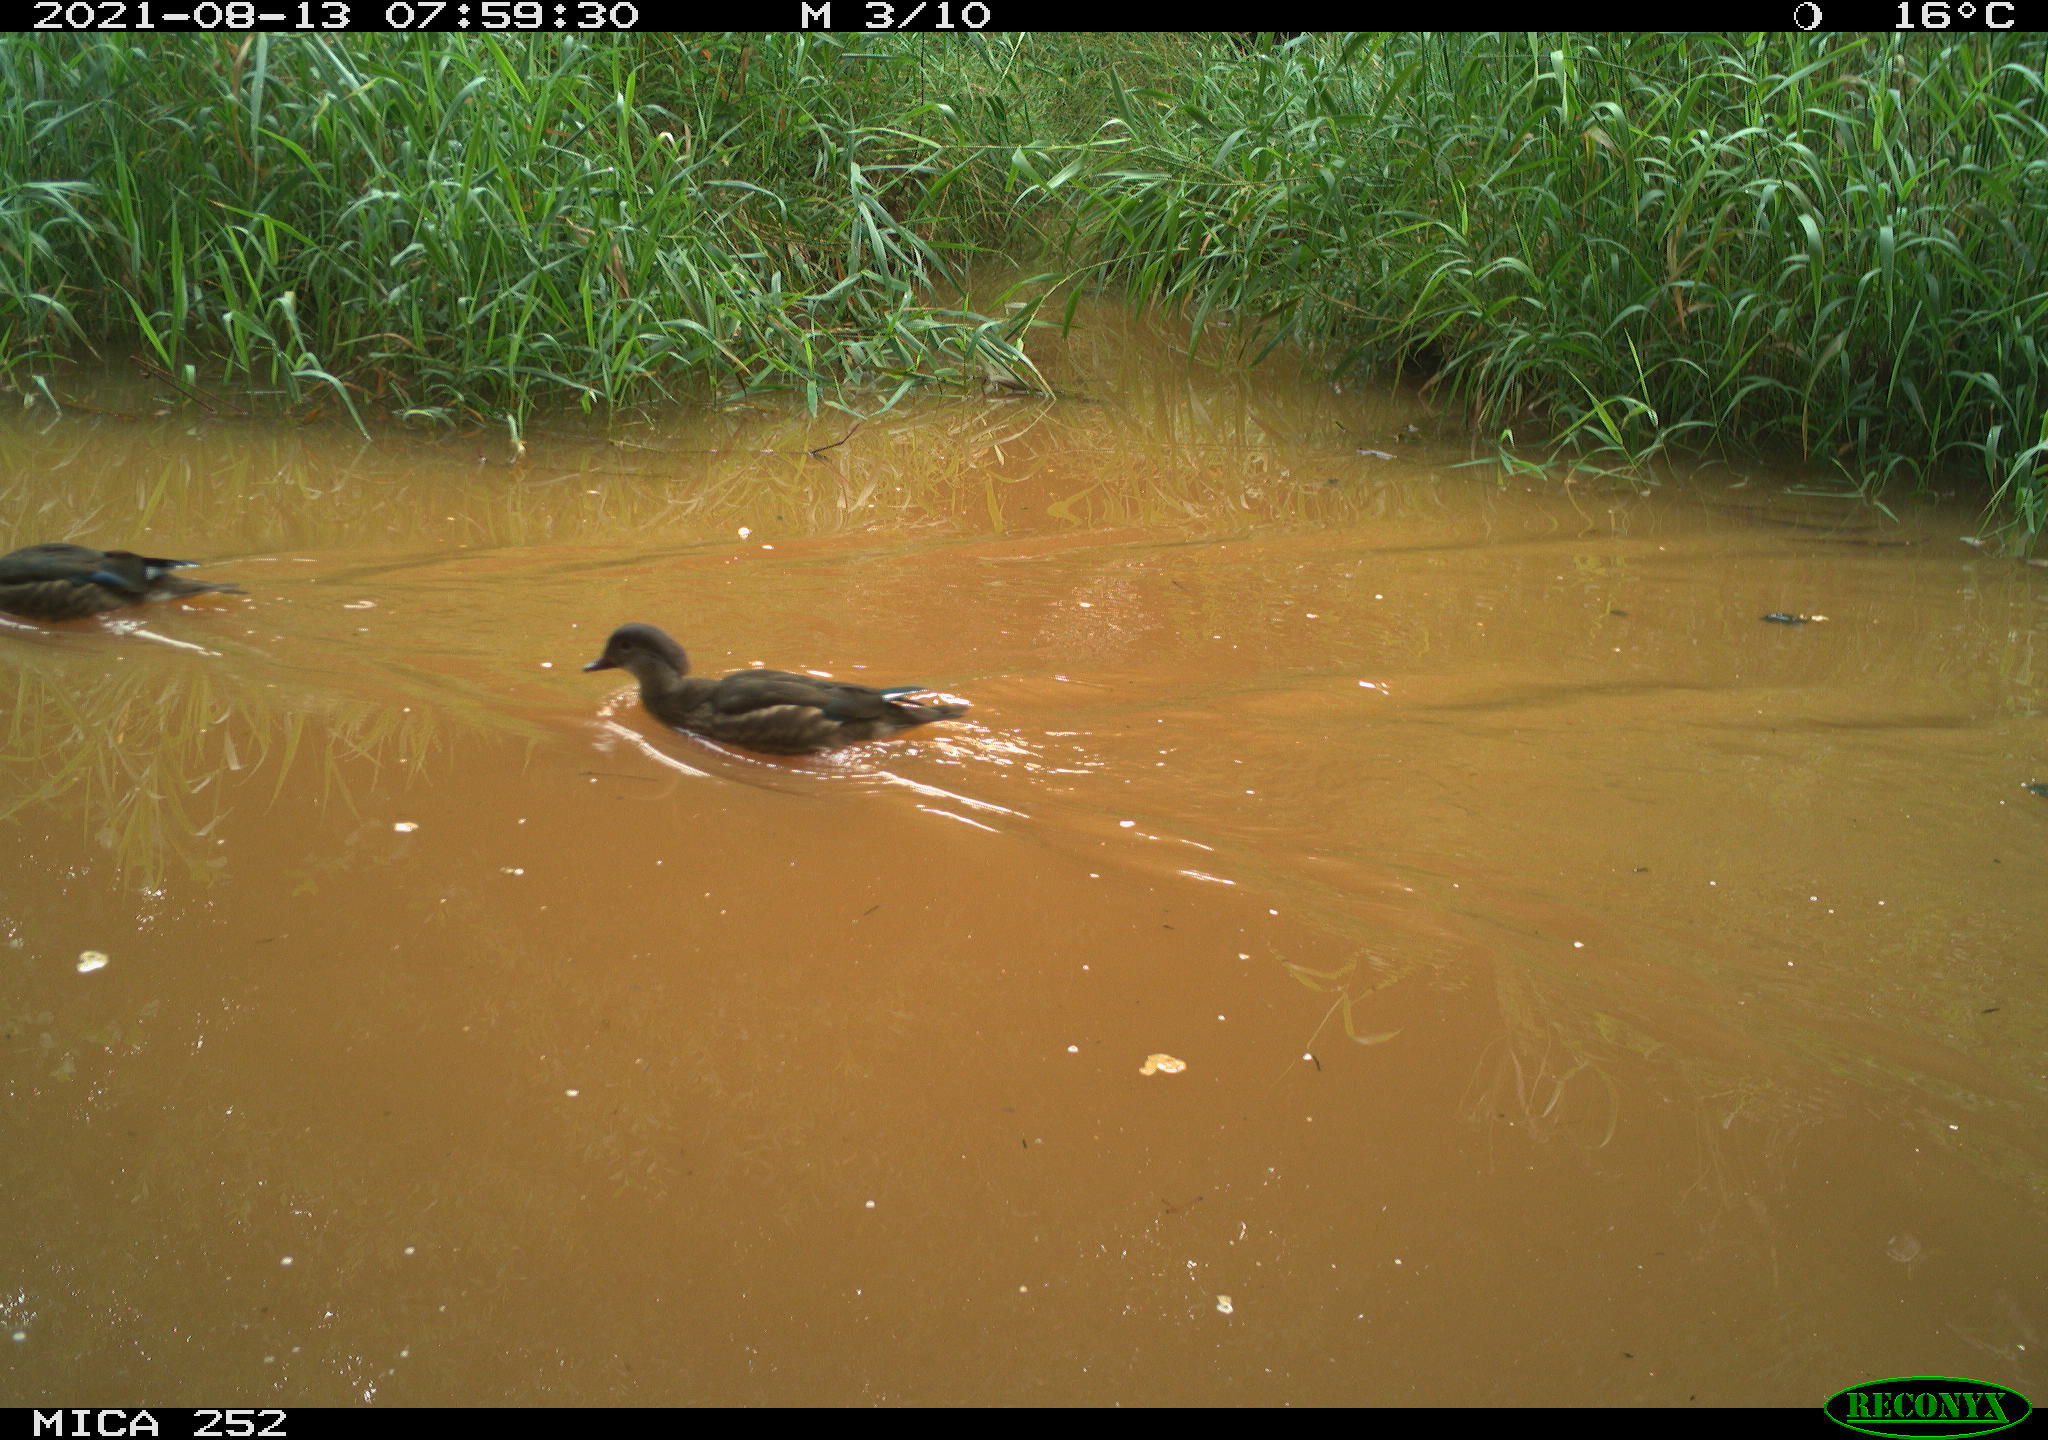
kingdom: Animalia
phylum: Chordata
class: Aves
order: Anseriformes
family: Anatidae
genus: Aix
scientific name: Aix galericulata
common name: Mandarin duck
